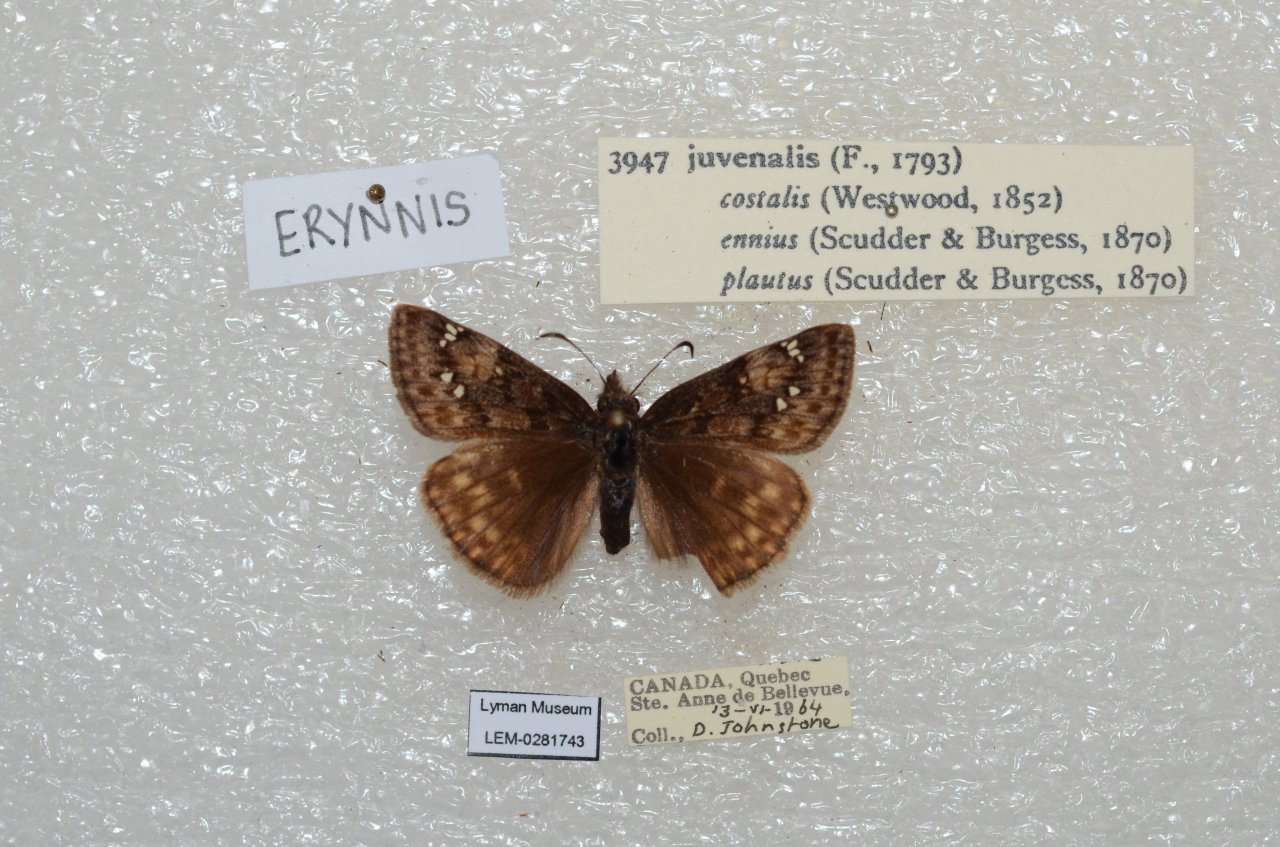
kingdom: Animalia
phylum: Arthropoda
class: Insecta
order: Lepidoptera
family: Hesperiidae
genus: Gesta
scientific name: Gesta
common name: Juvenal's Duskywing
